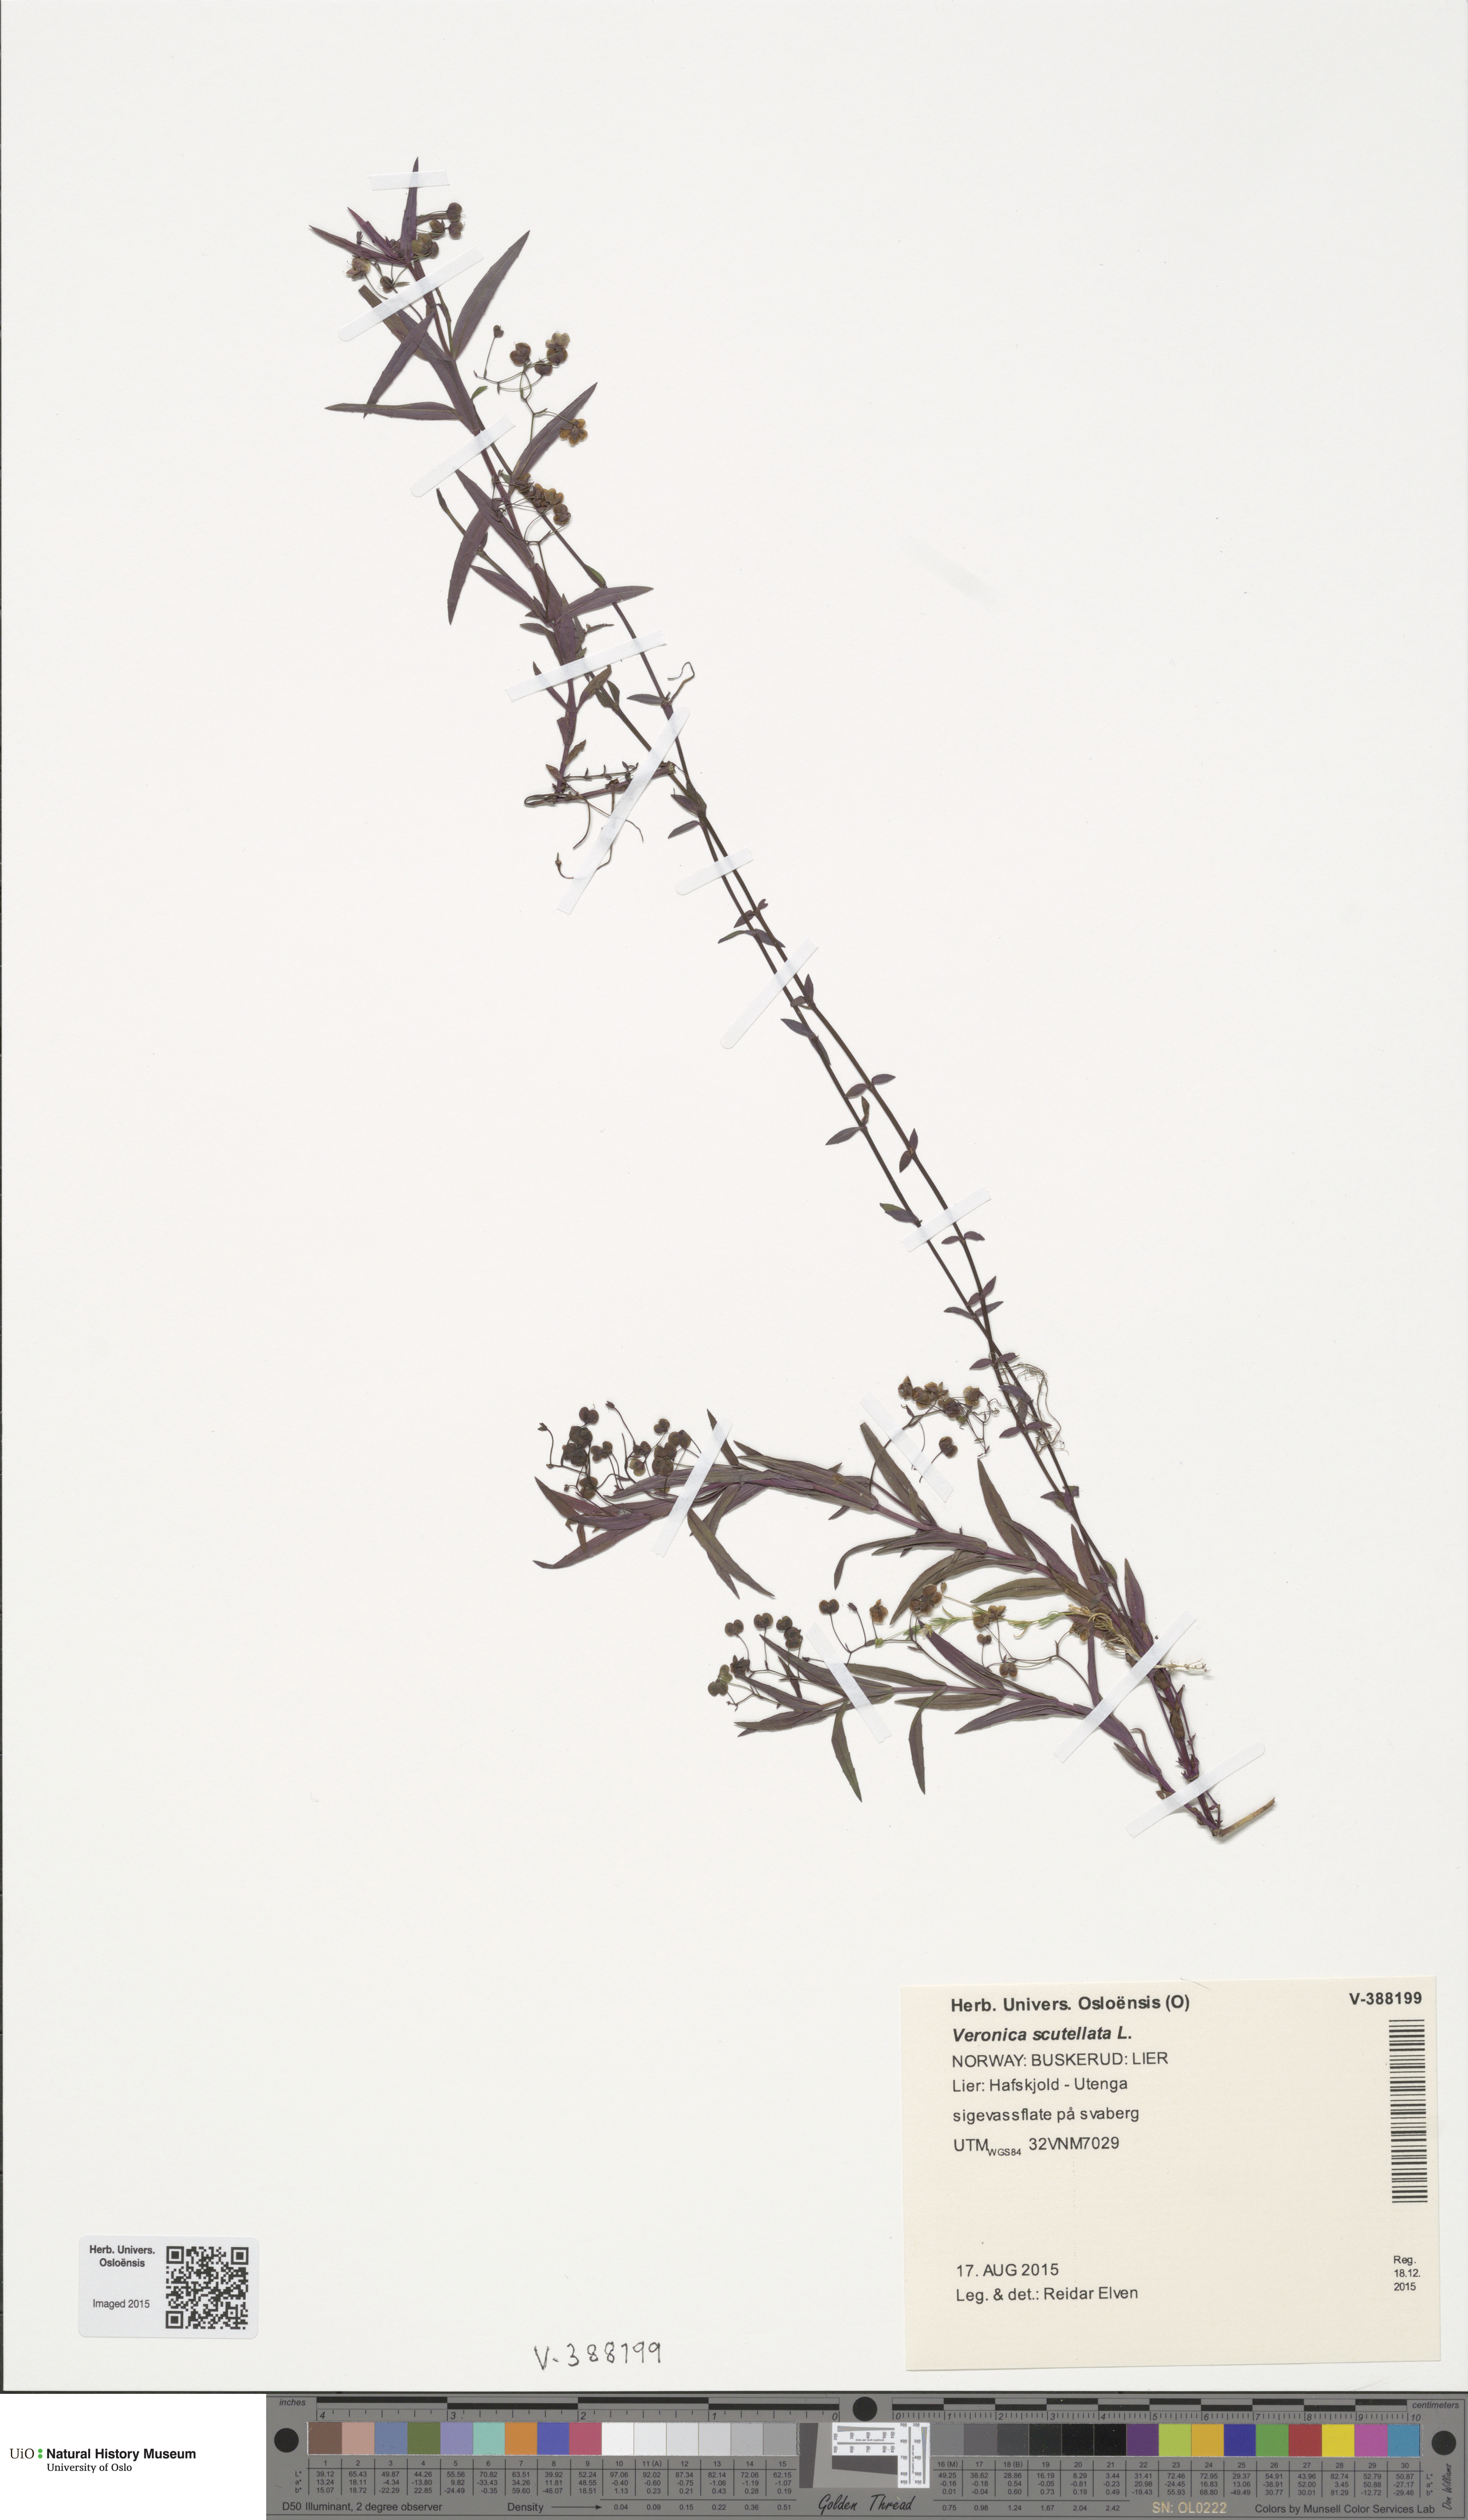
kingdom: Plantae
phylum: Tracheophyta
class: Magnoliopsida
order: Lamiales
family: Plantaginaceae
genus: Veronica
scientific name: Veronica scutellata
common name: Marsh speedwell
